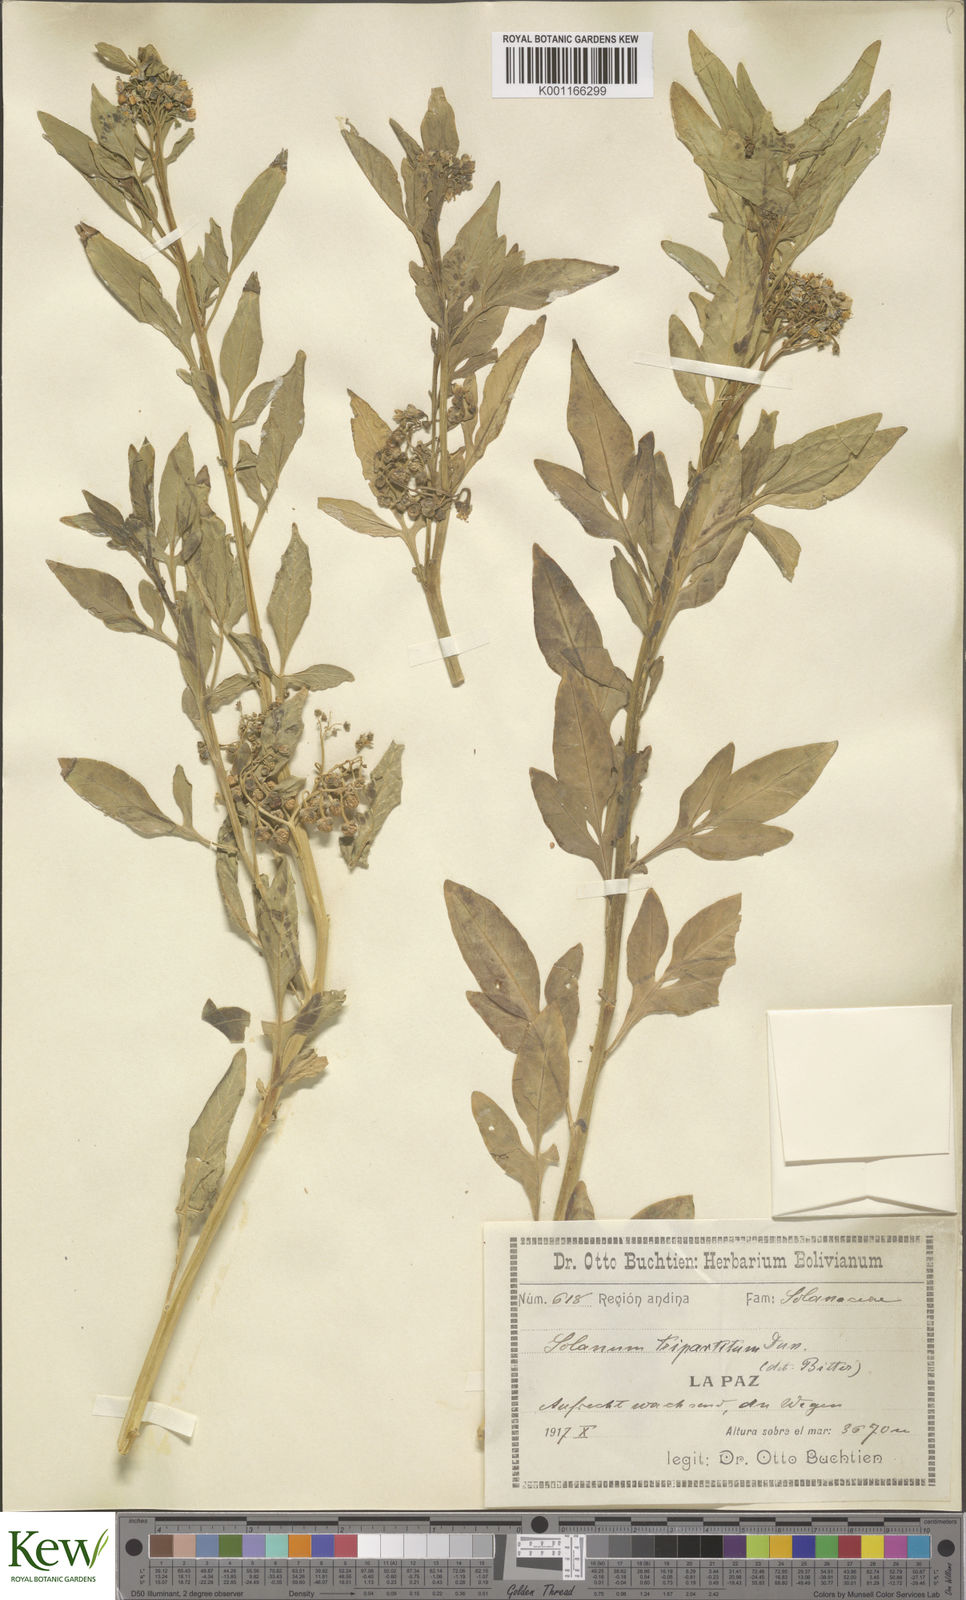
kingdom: Plantae
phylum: Tracheophyta
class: Magnoliopsida
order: Solanales
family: Solanaceae
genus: Solanum
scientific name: Solanum tripartitum
